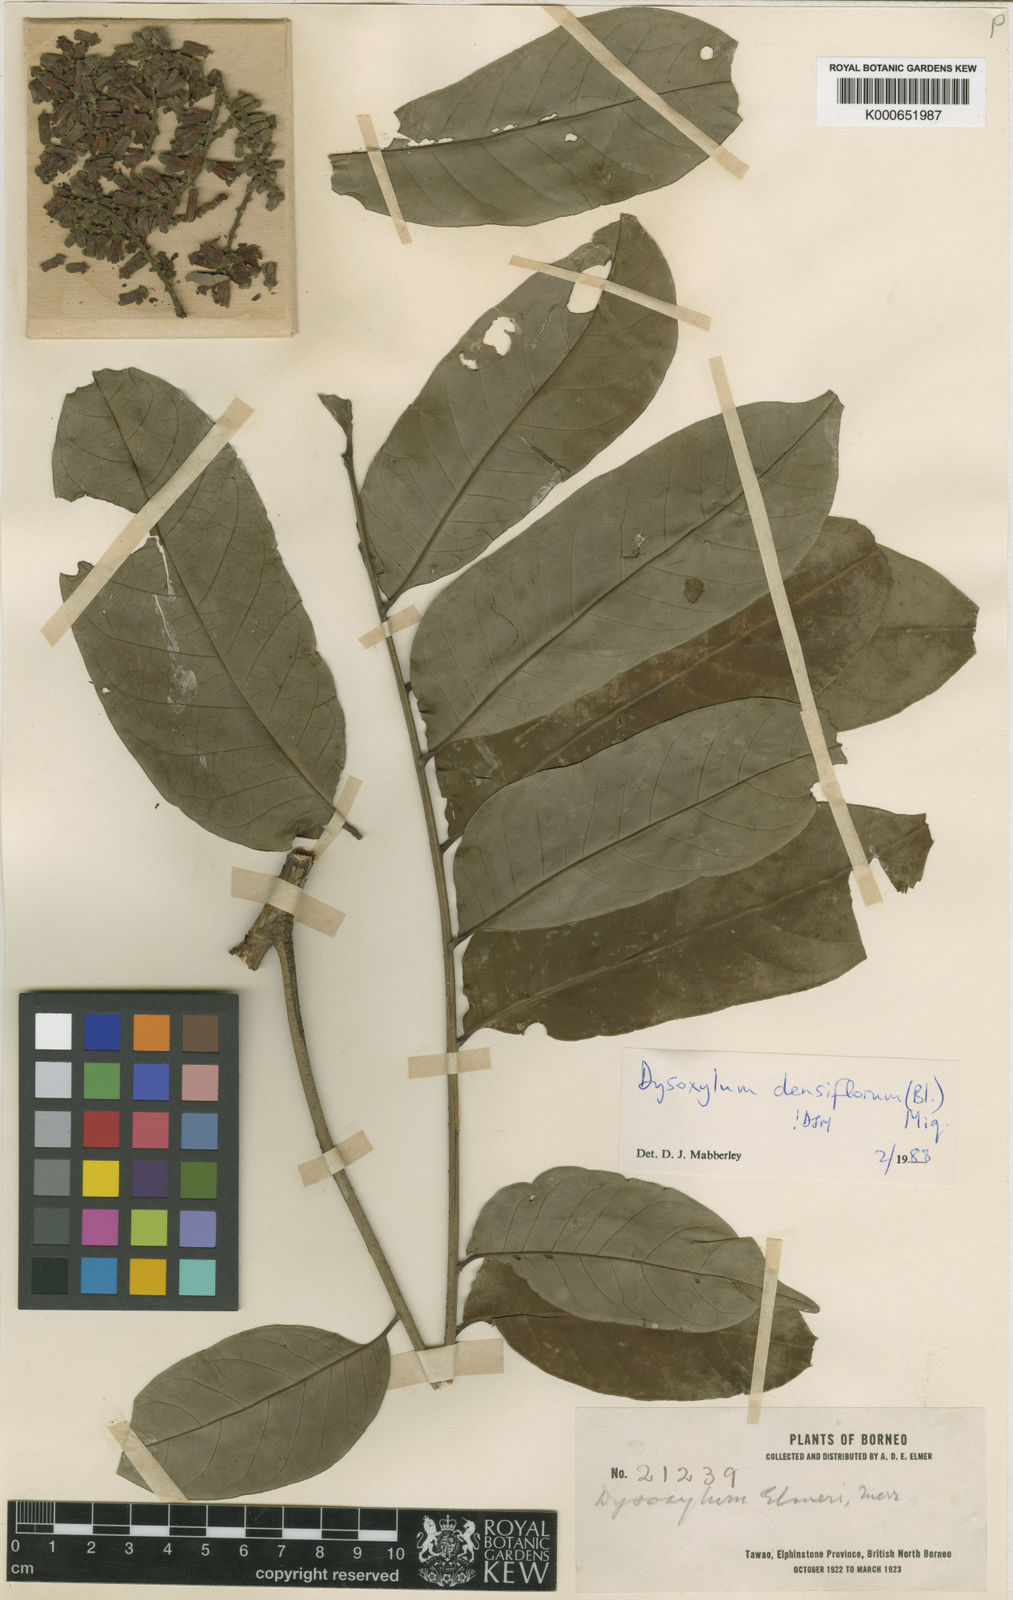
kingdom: Plantae
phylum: Tracheophyta
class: Magnoliopsida
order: Sapindales
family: Meliaceae
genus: Epicharis
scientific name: Epicharis densiflora
